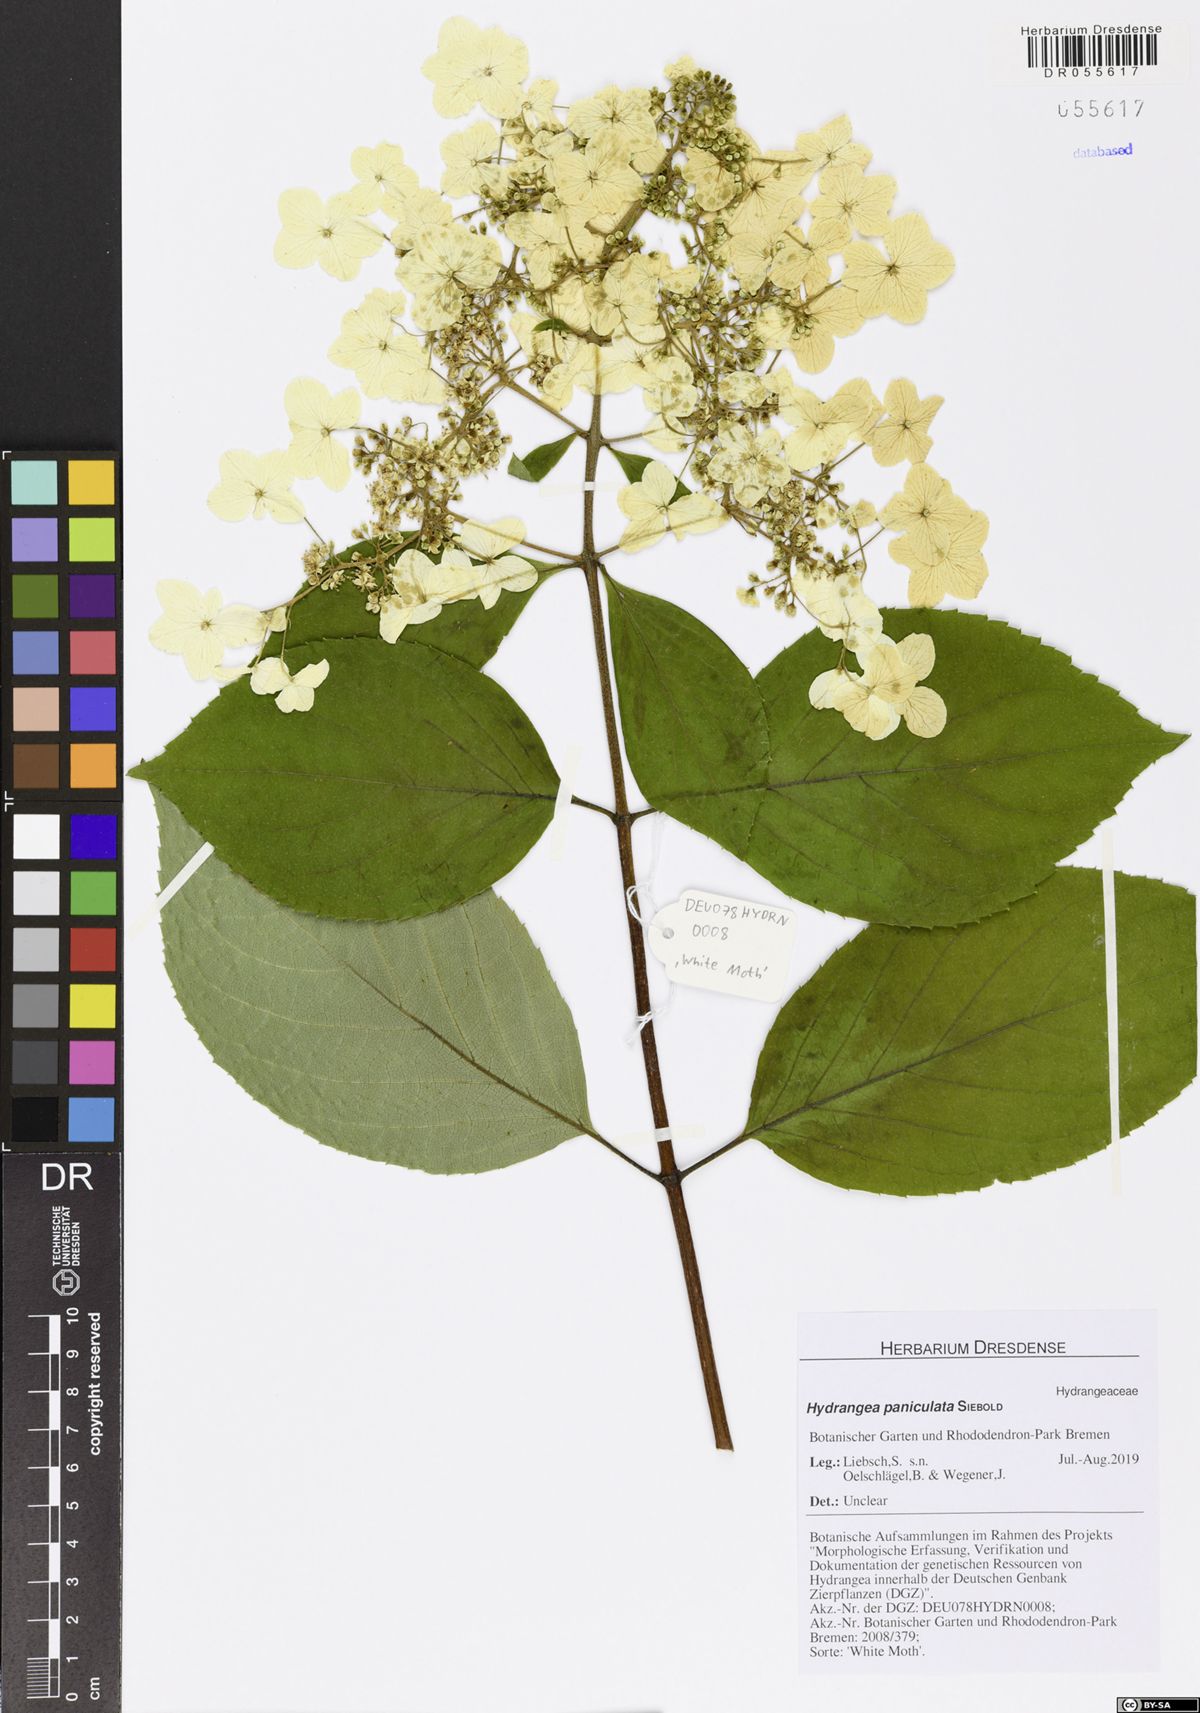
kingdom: Plantae
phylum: Tracheophyta
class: Magnoliopsida
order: Cornales
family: Hydrangeaceae
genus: Hydrangea
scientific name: Hydrangea paniculata
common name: Panicled hydrangea
